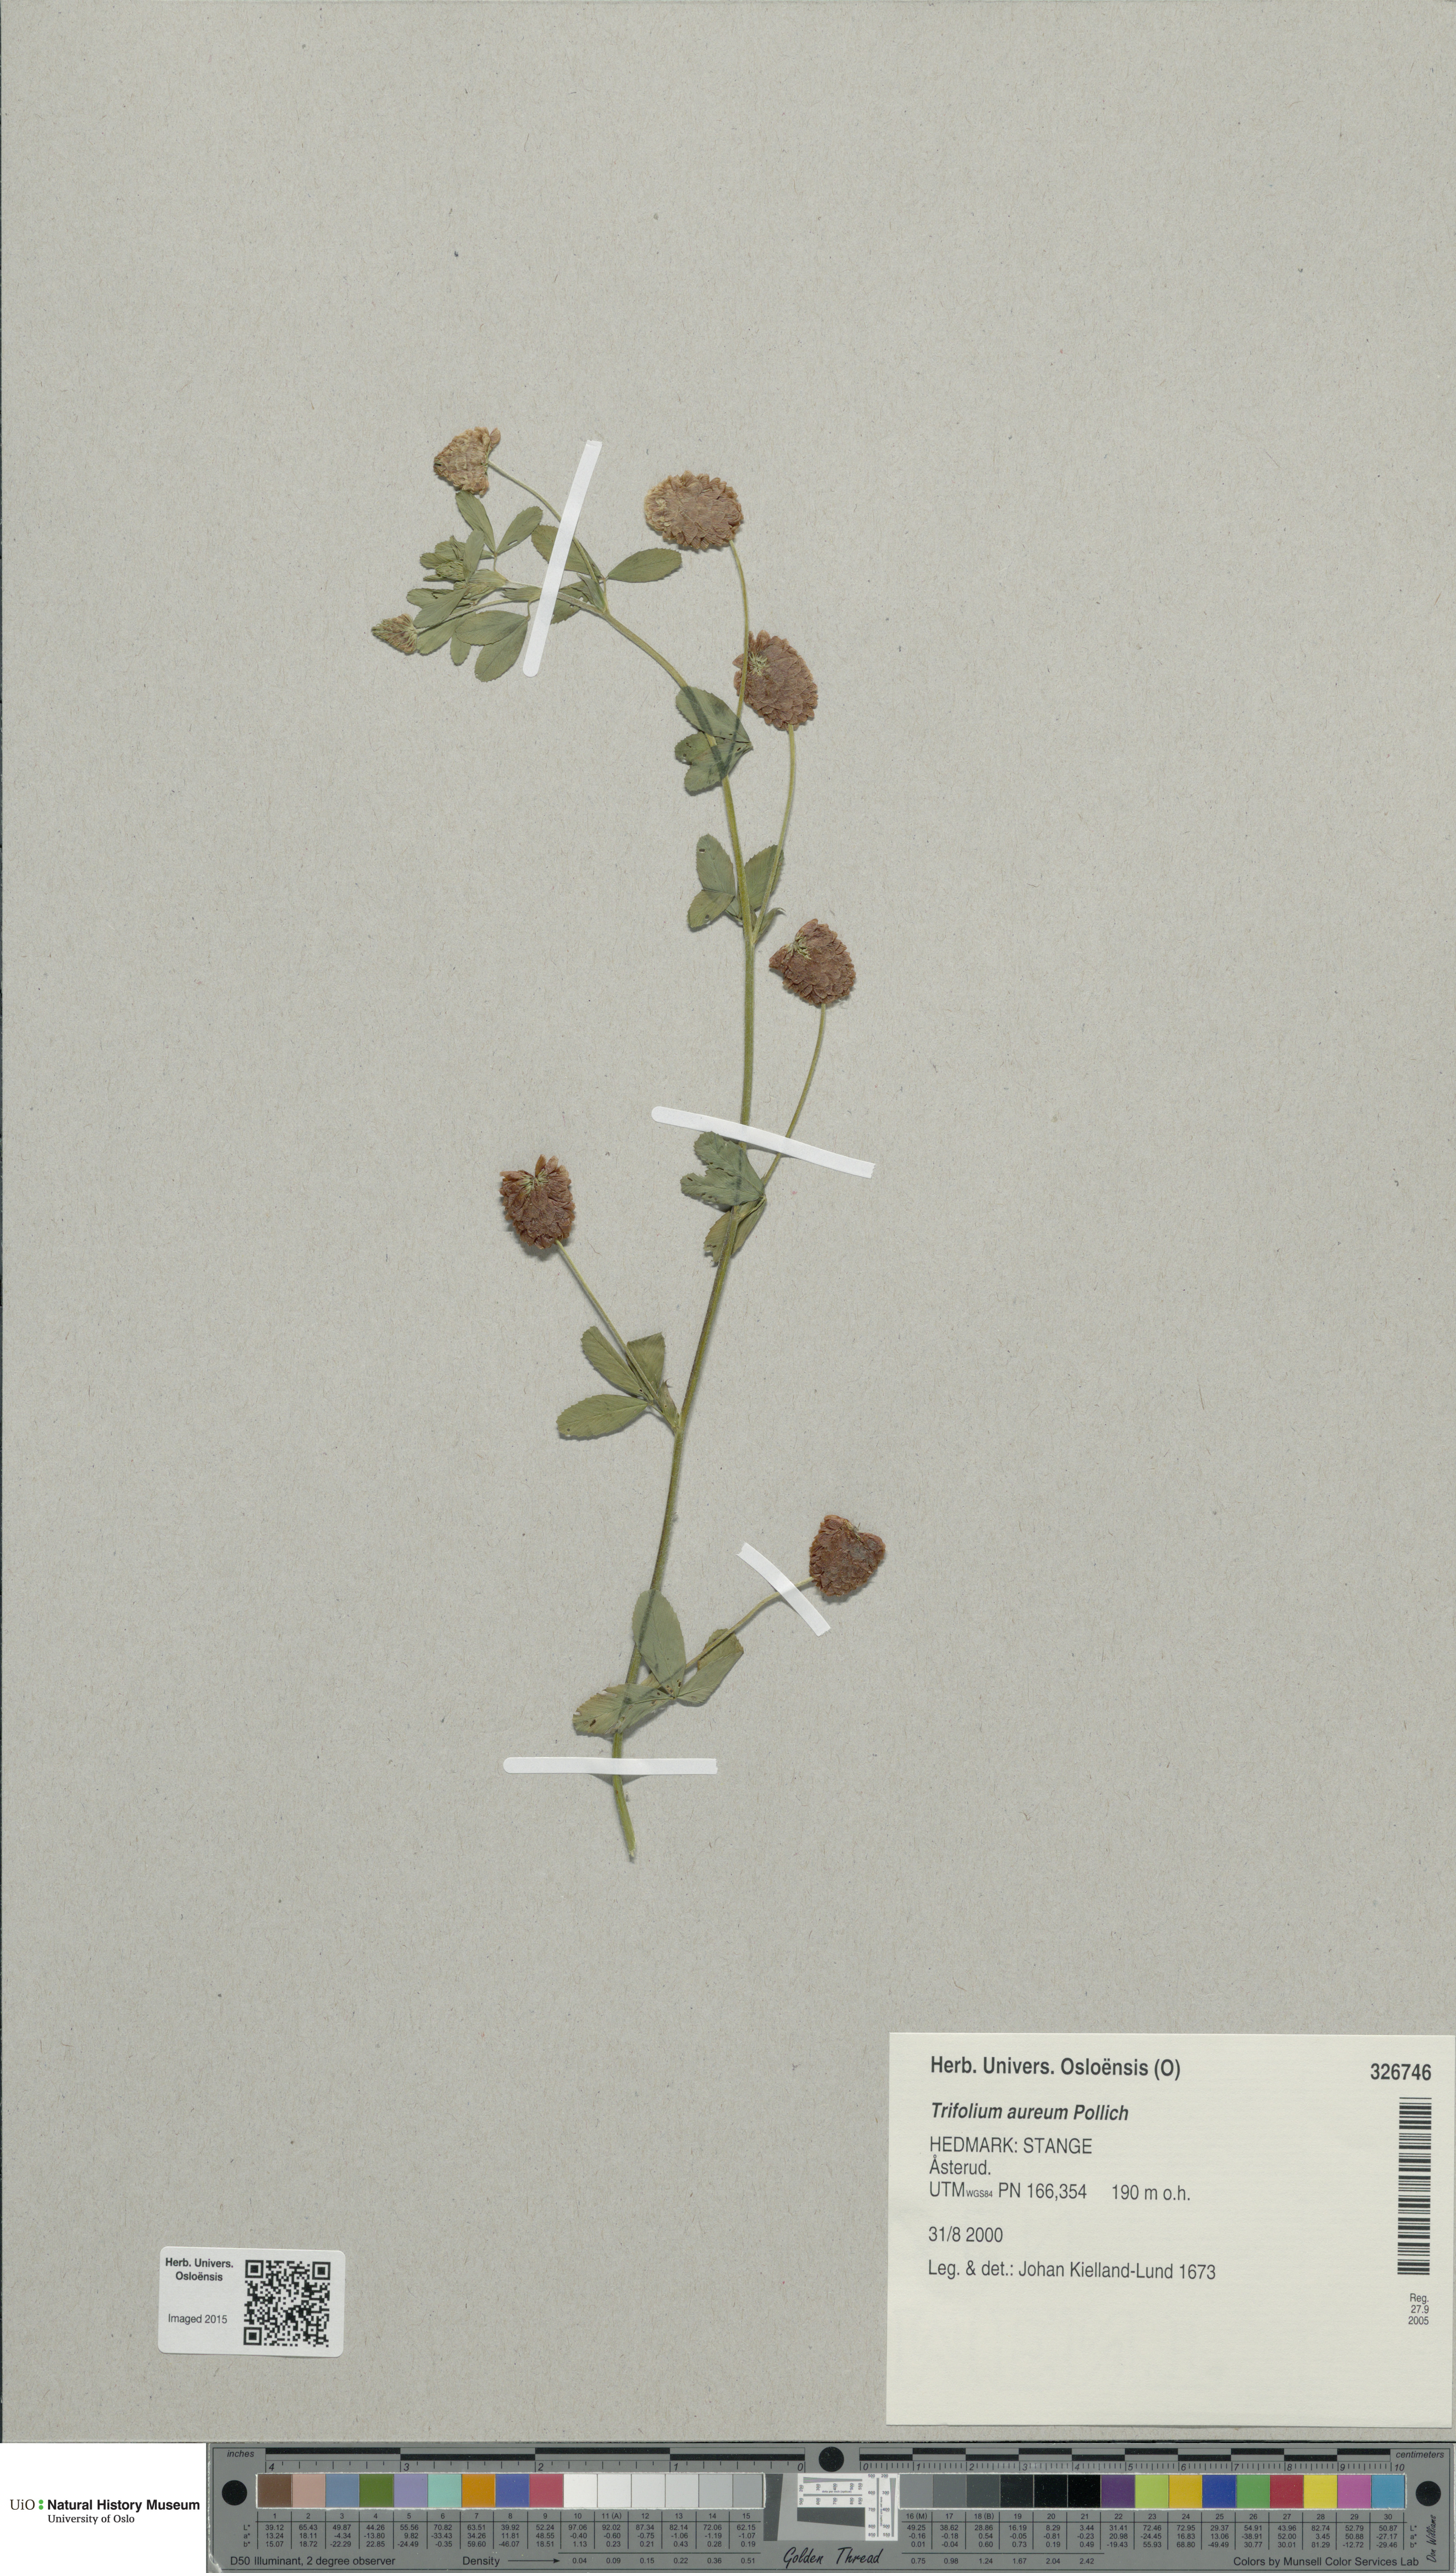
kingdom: Plantae
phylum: Tracheophyta
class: Magnoliopsida
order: Fabales
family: Fabaceae
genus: Trifolium
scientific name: Trifolium aureum
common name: Golden clover
